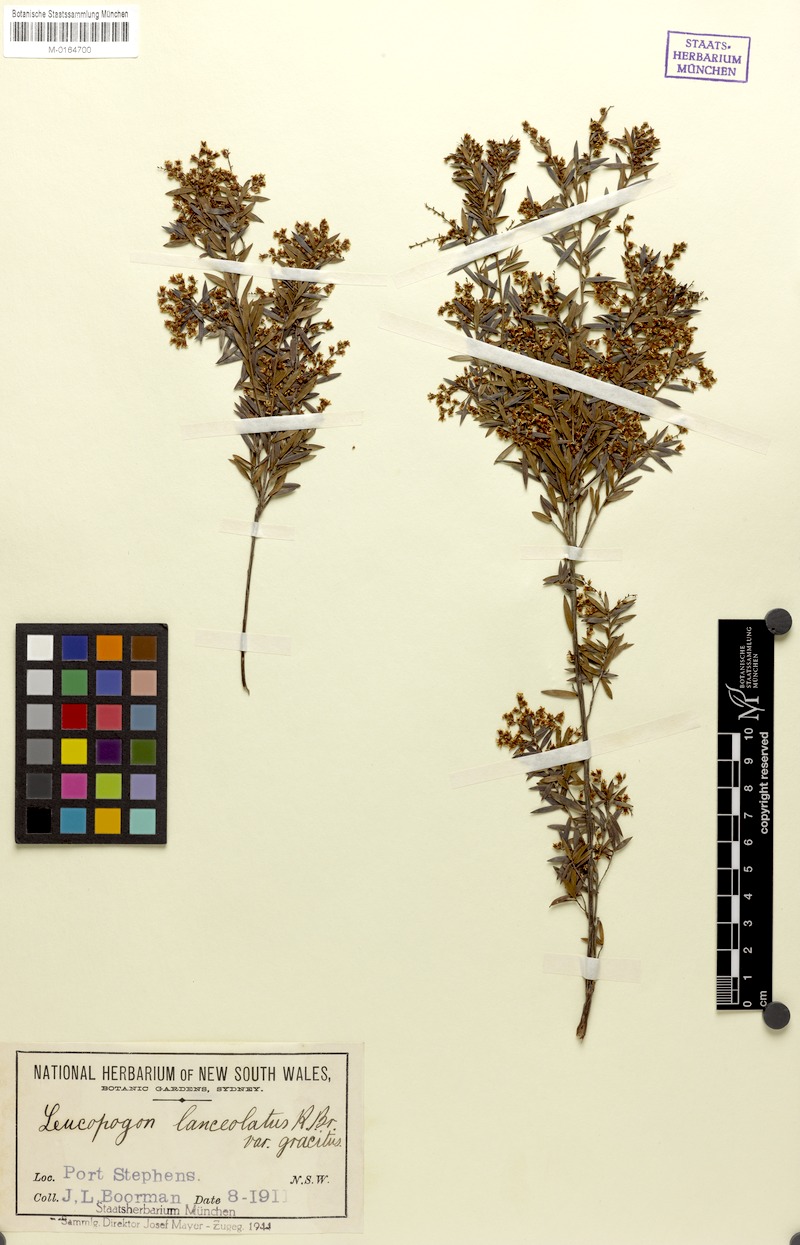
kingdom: Plantae
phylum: Tracheophyta
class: Magnoliopsida
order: Ericales
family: Ericaceae
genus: Leucopogon
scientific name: Leucopogon pimeleoides
